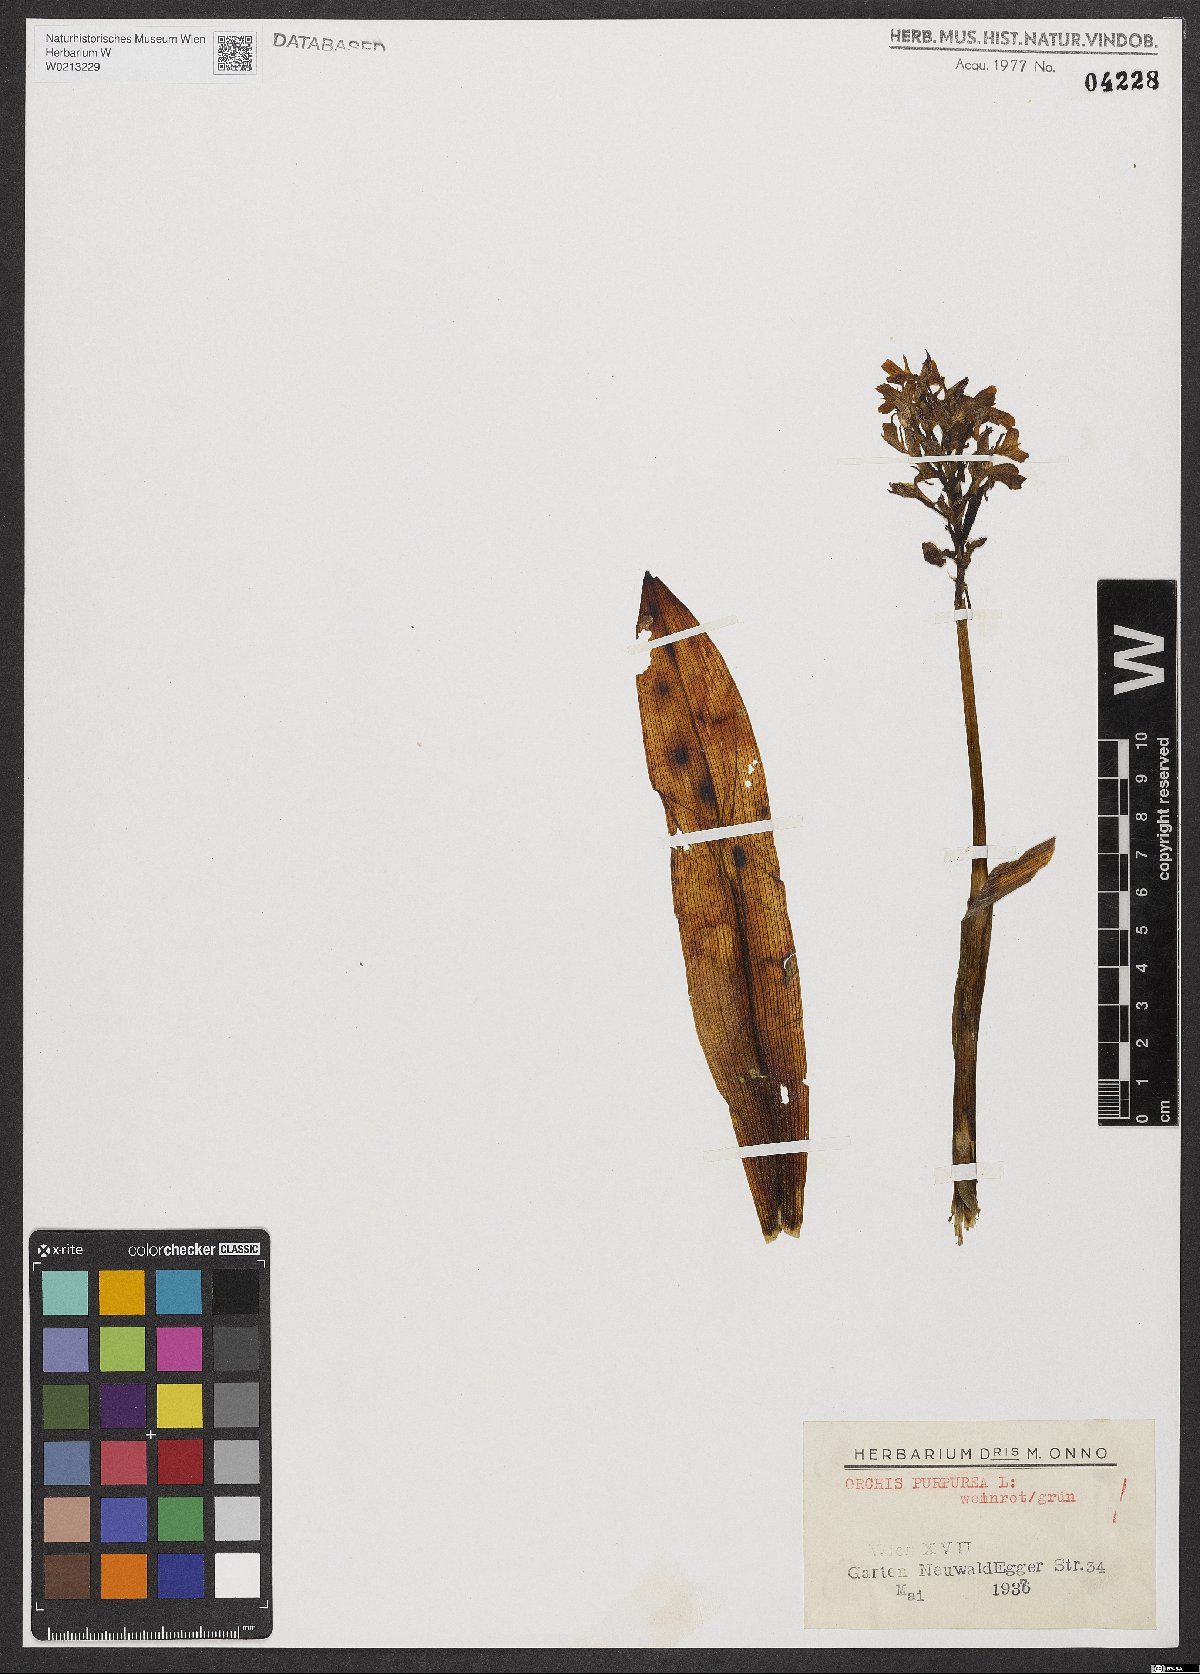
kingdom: Plantae
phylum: Tracheophyta
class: Liliopsida
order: Asparagales
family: Orchidaceae
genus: Orchis
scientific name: Orchis purpurea
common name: Lady orchid
